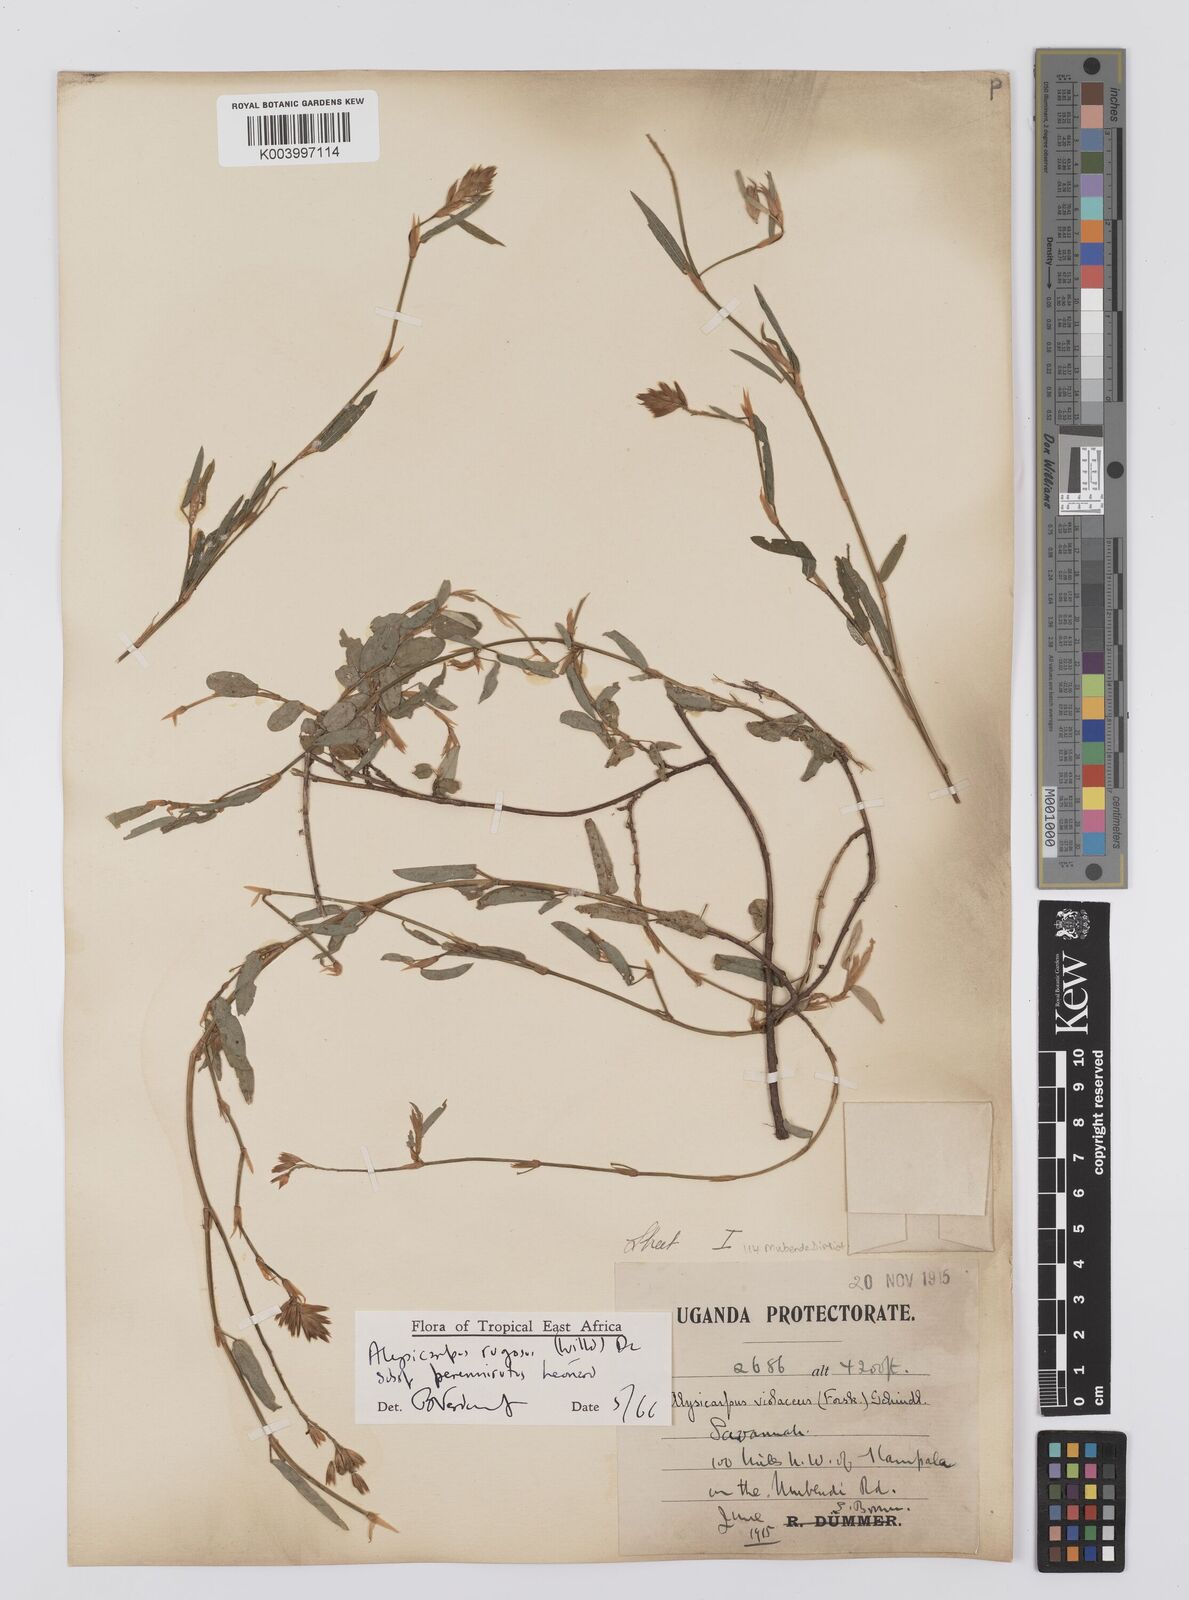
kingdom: Plantae
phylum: Tracheophyta
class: Magnoliopsida
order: Fabales
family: Fabaceae
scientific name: Fabaceae
